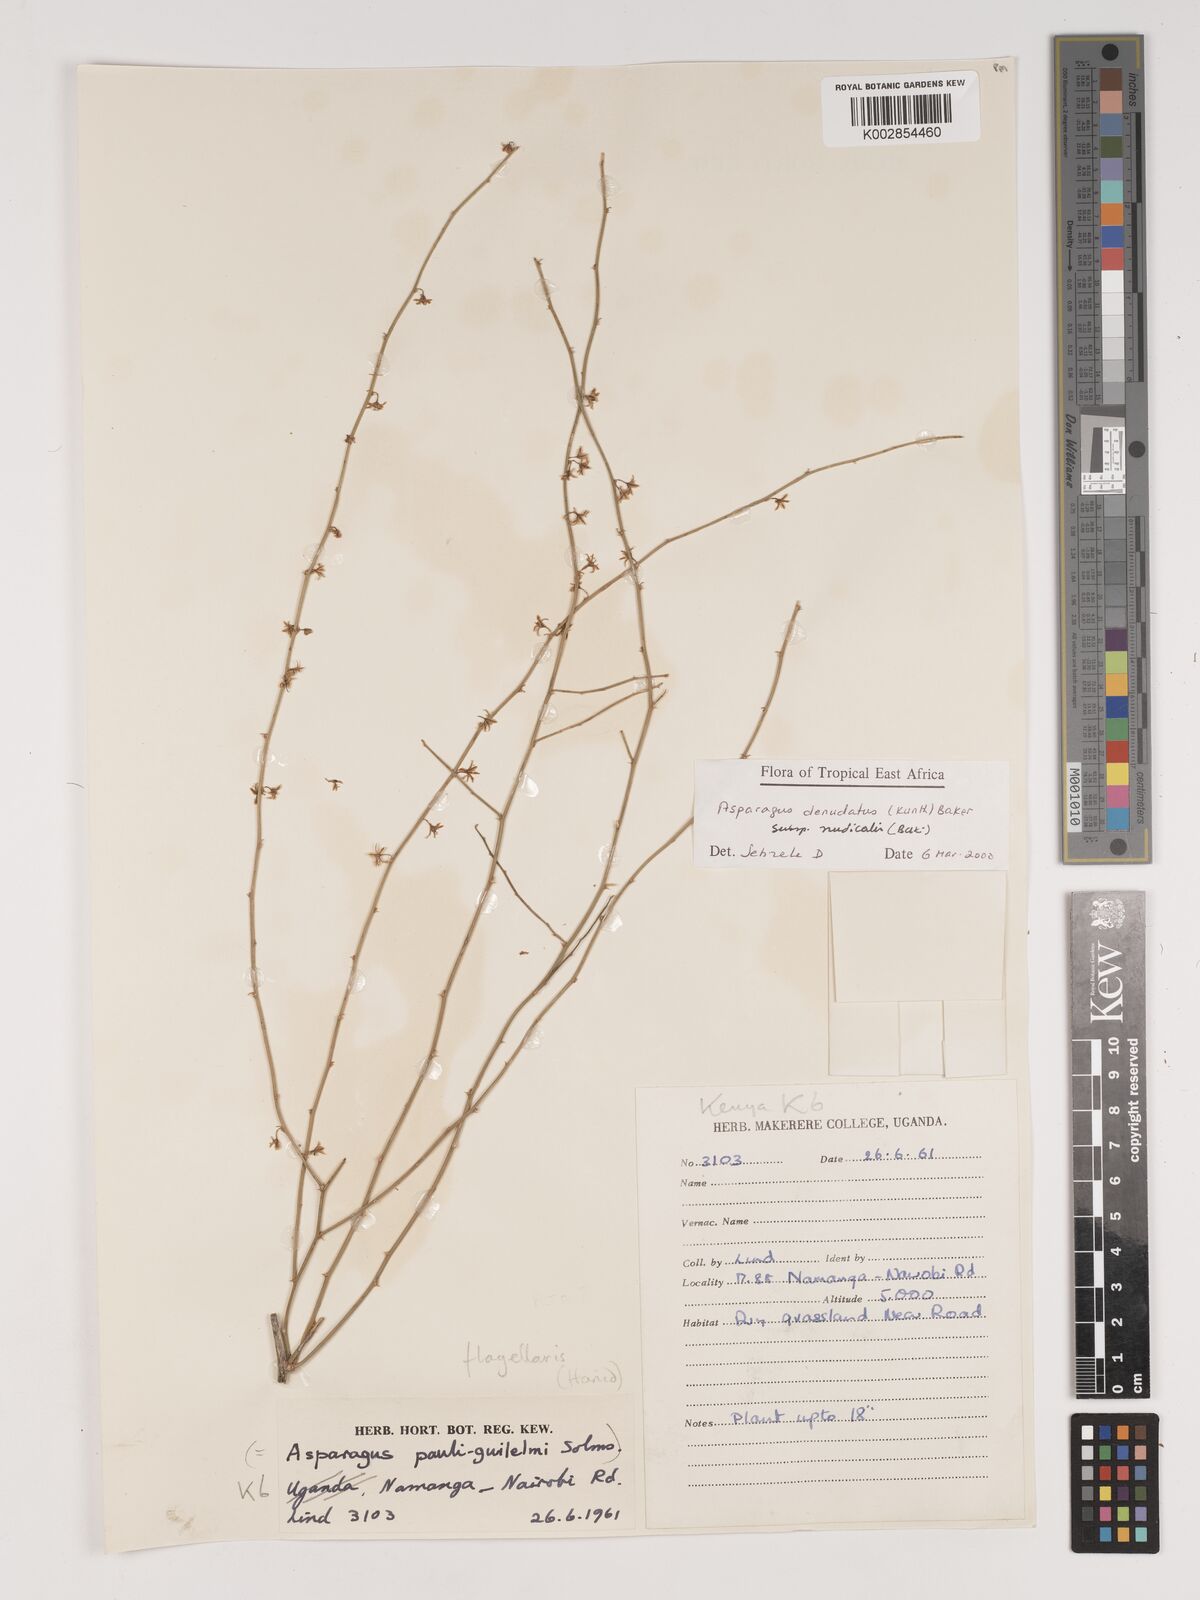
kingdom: Plantae
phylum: Tracheophyta
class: Liliopsida
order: Asparagales
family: Asparagaceae
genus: Asparagus
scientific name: Asparagus denudatus
